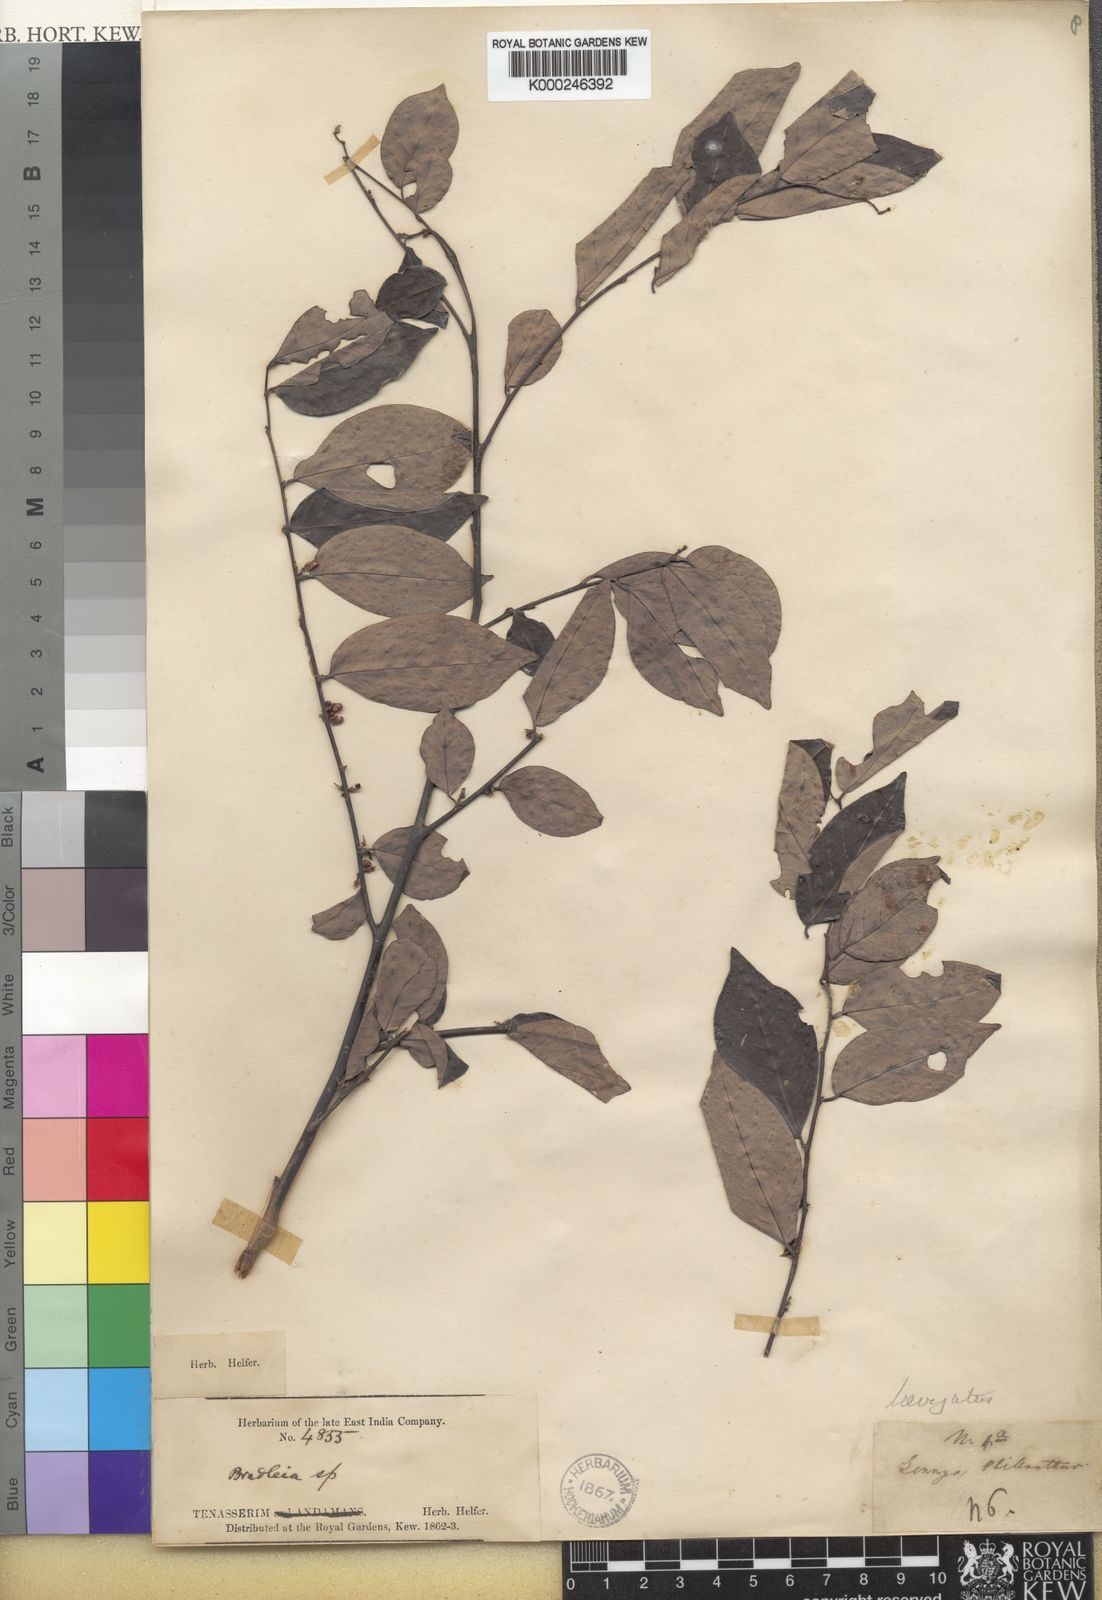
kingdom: Plantae
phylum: Tracheophyta
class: Magnoliopsida
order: Malpighiales
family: Phyllanthaceae
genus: Glochidion
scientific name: Glochidion lutescens
